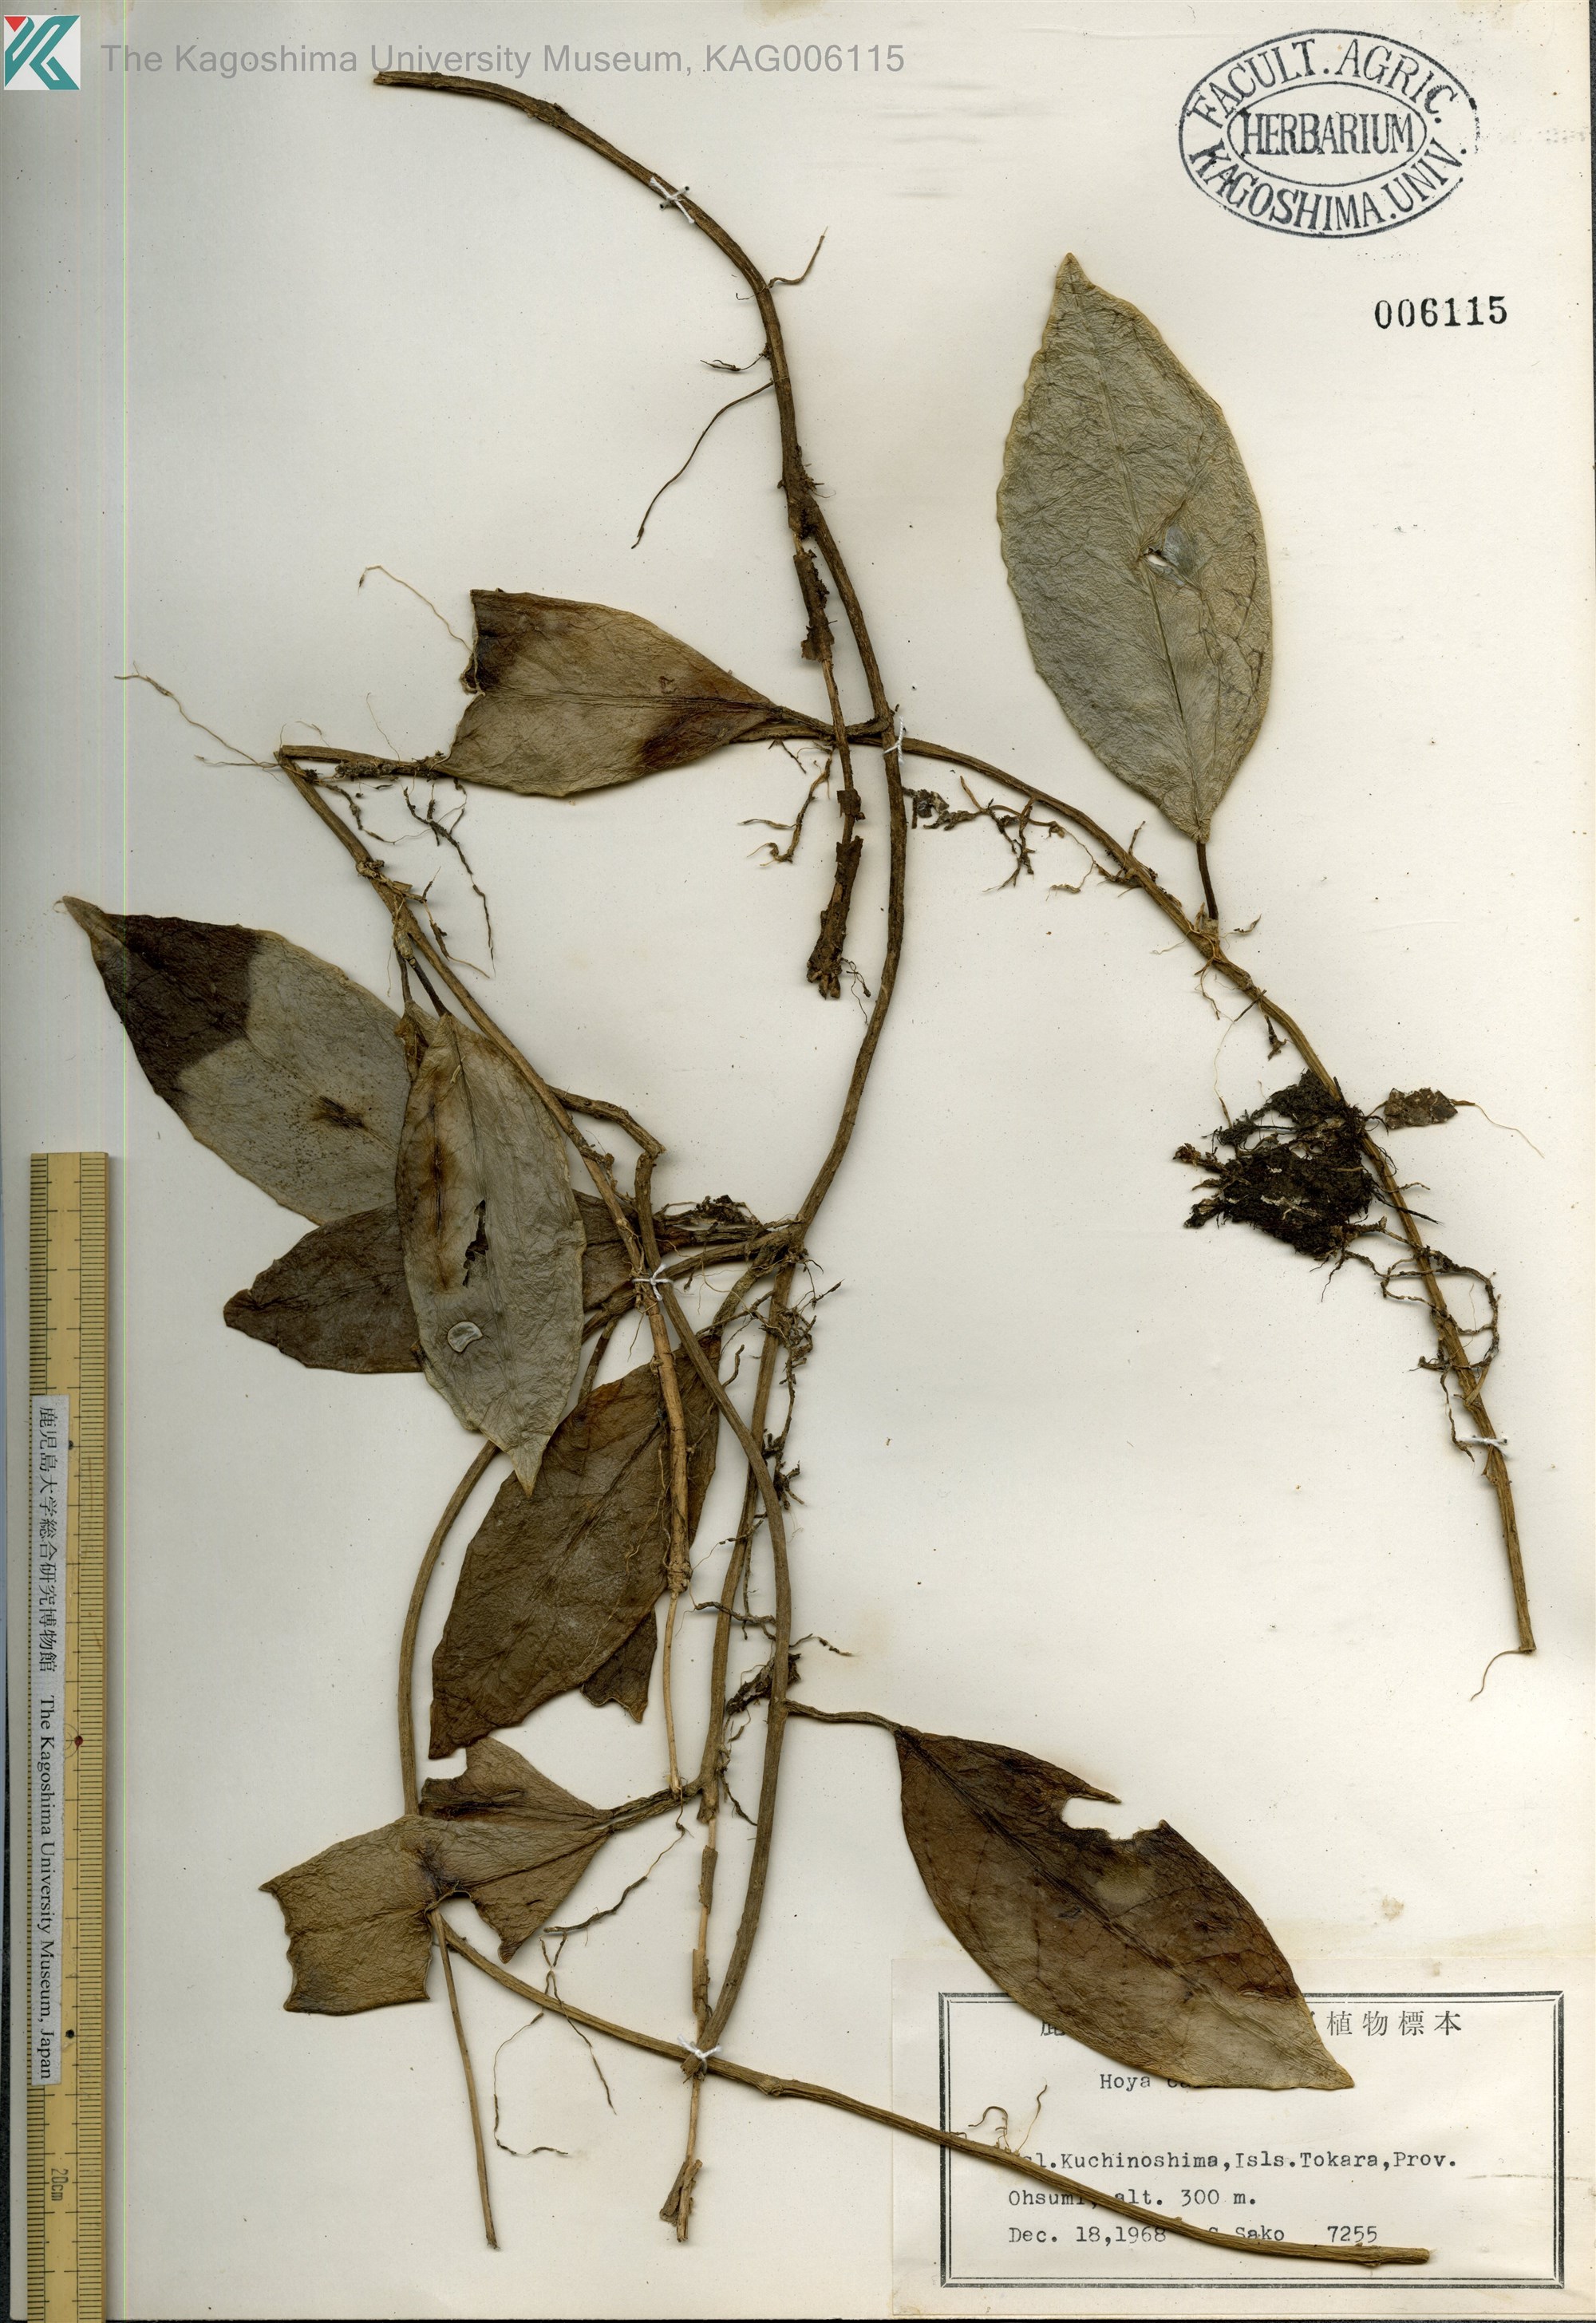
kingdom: Plantae
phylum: Tracheophyta
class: Magnoliopsida
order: Gentianales
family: Apocynaceae
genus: Hoya
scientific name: Hoya carnosa
